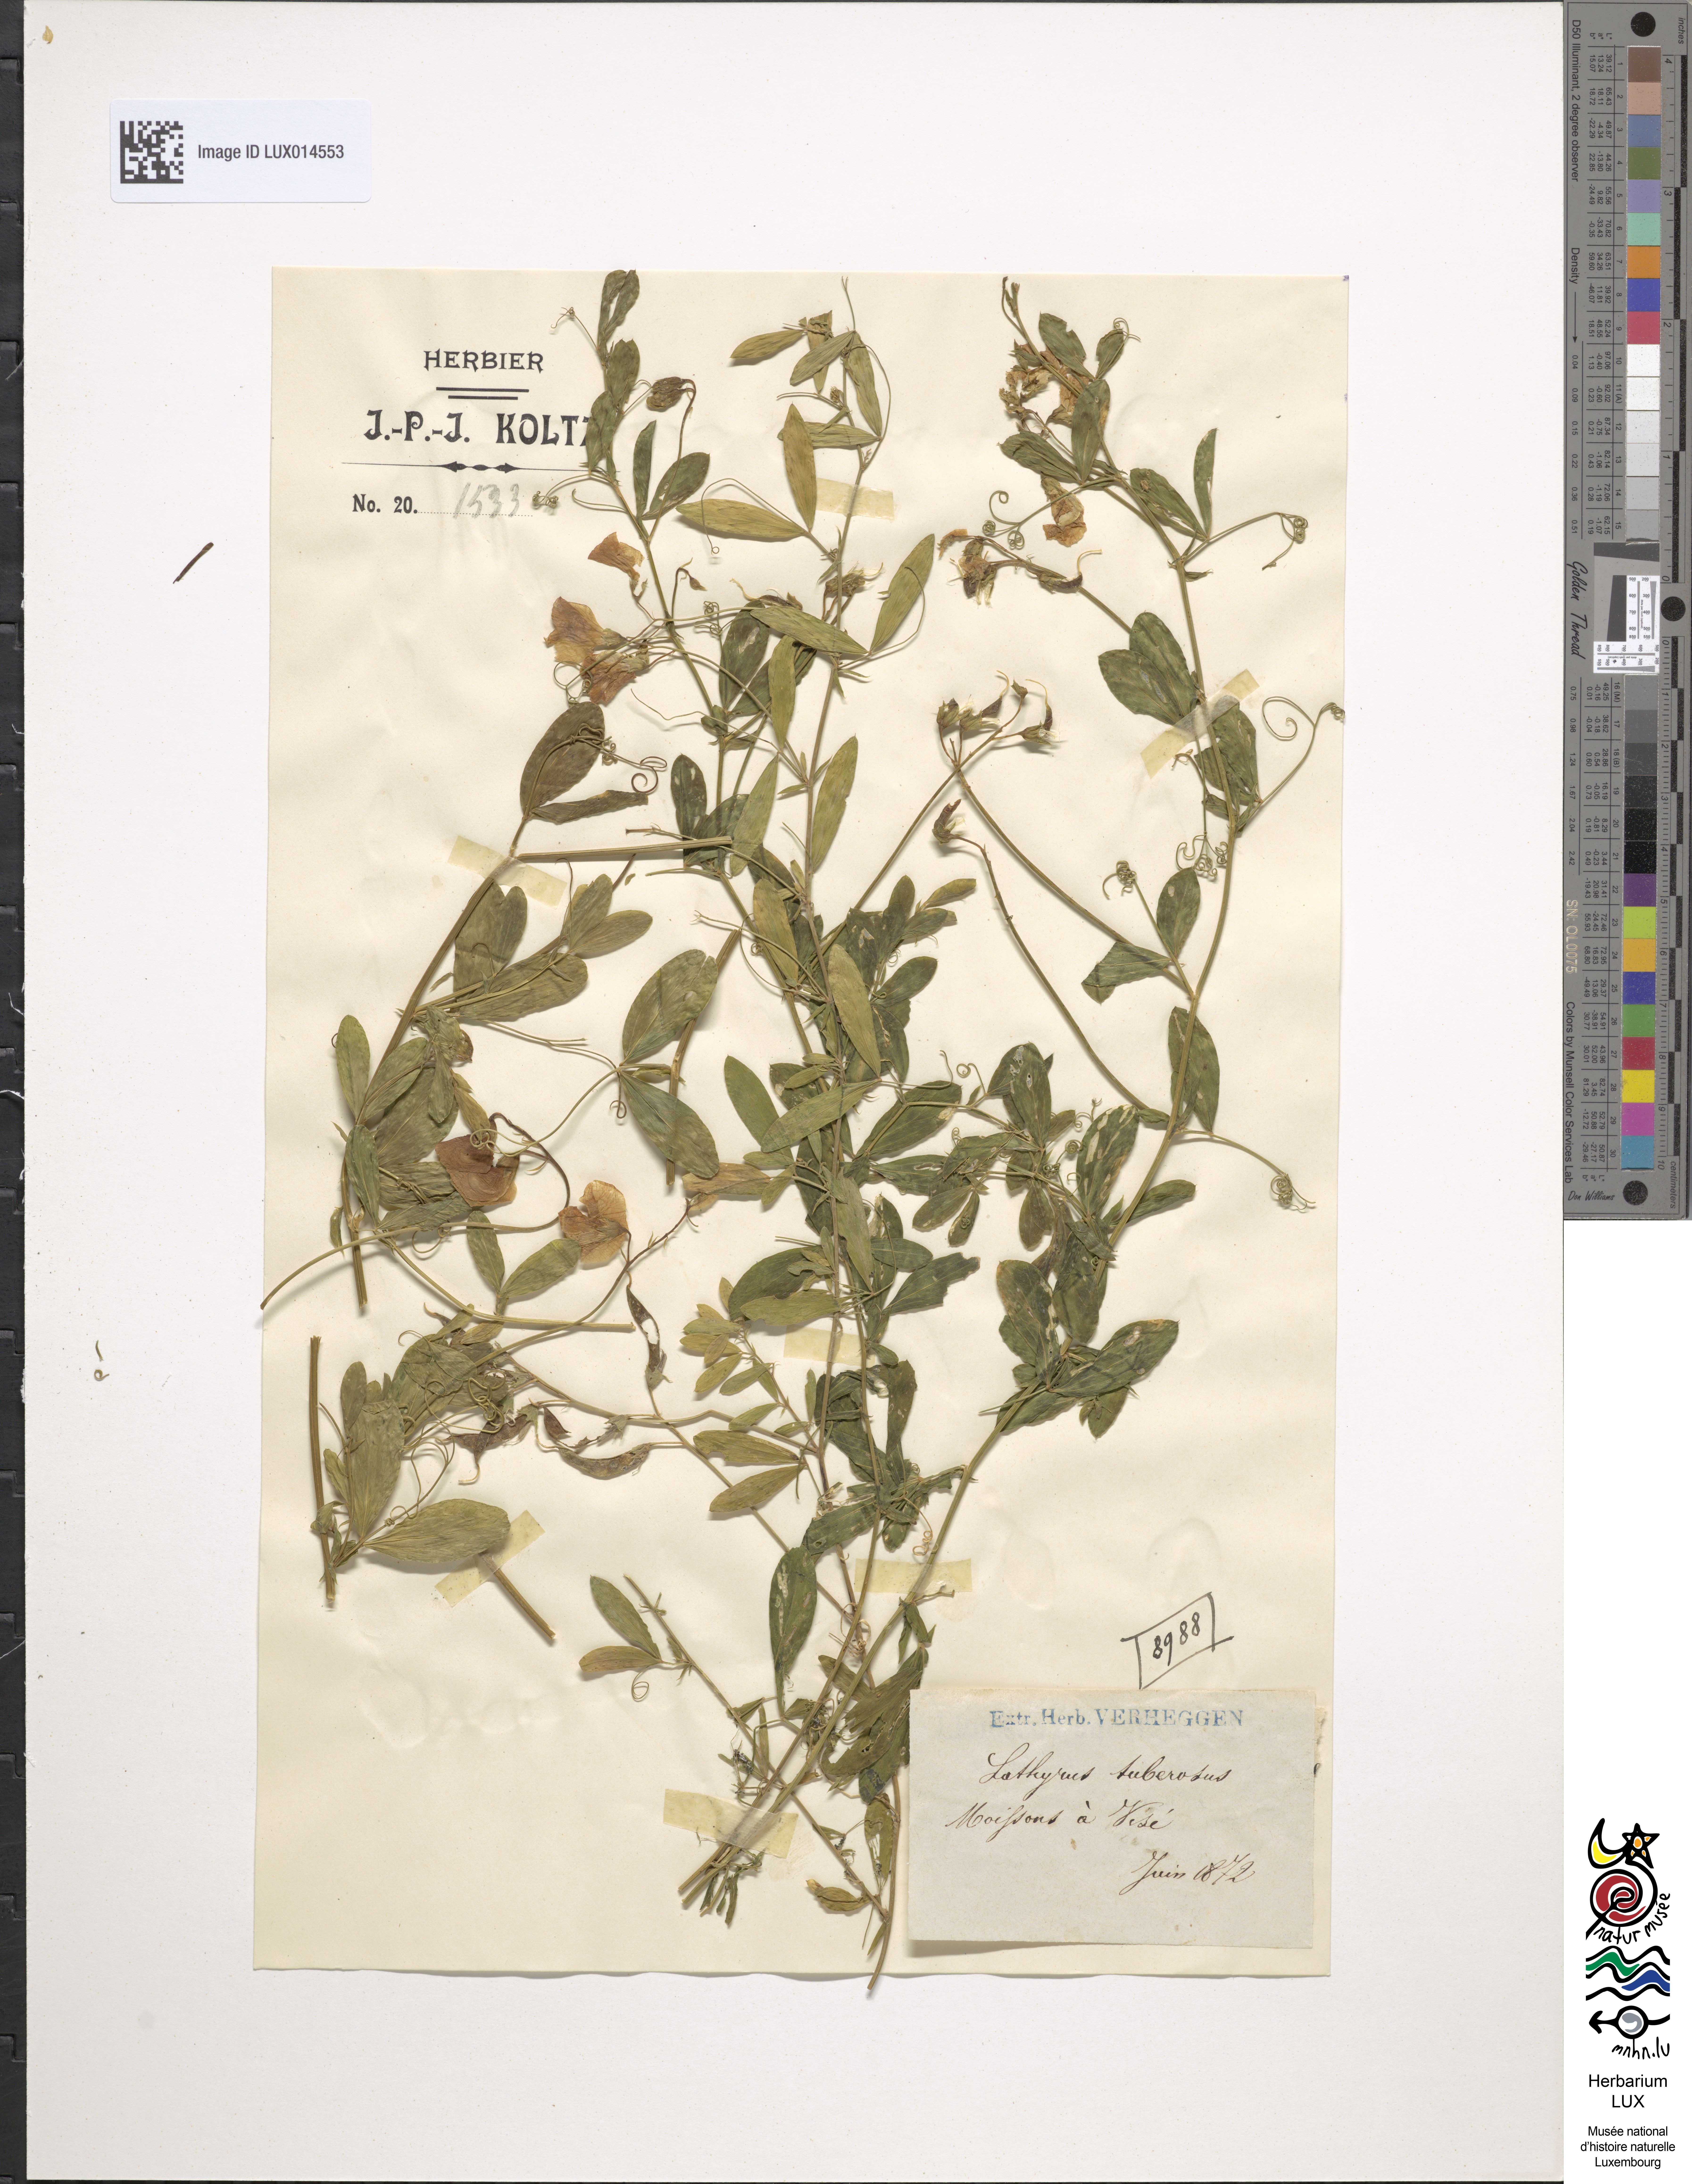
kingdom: Plantae
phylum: Tracheophyta
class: Magnoliopsida
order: Fabales
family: Fabaceae
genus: Lathyrus
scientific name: Lathyrus tuberosus
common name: Tuberous pea
